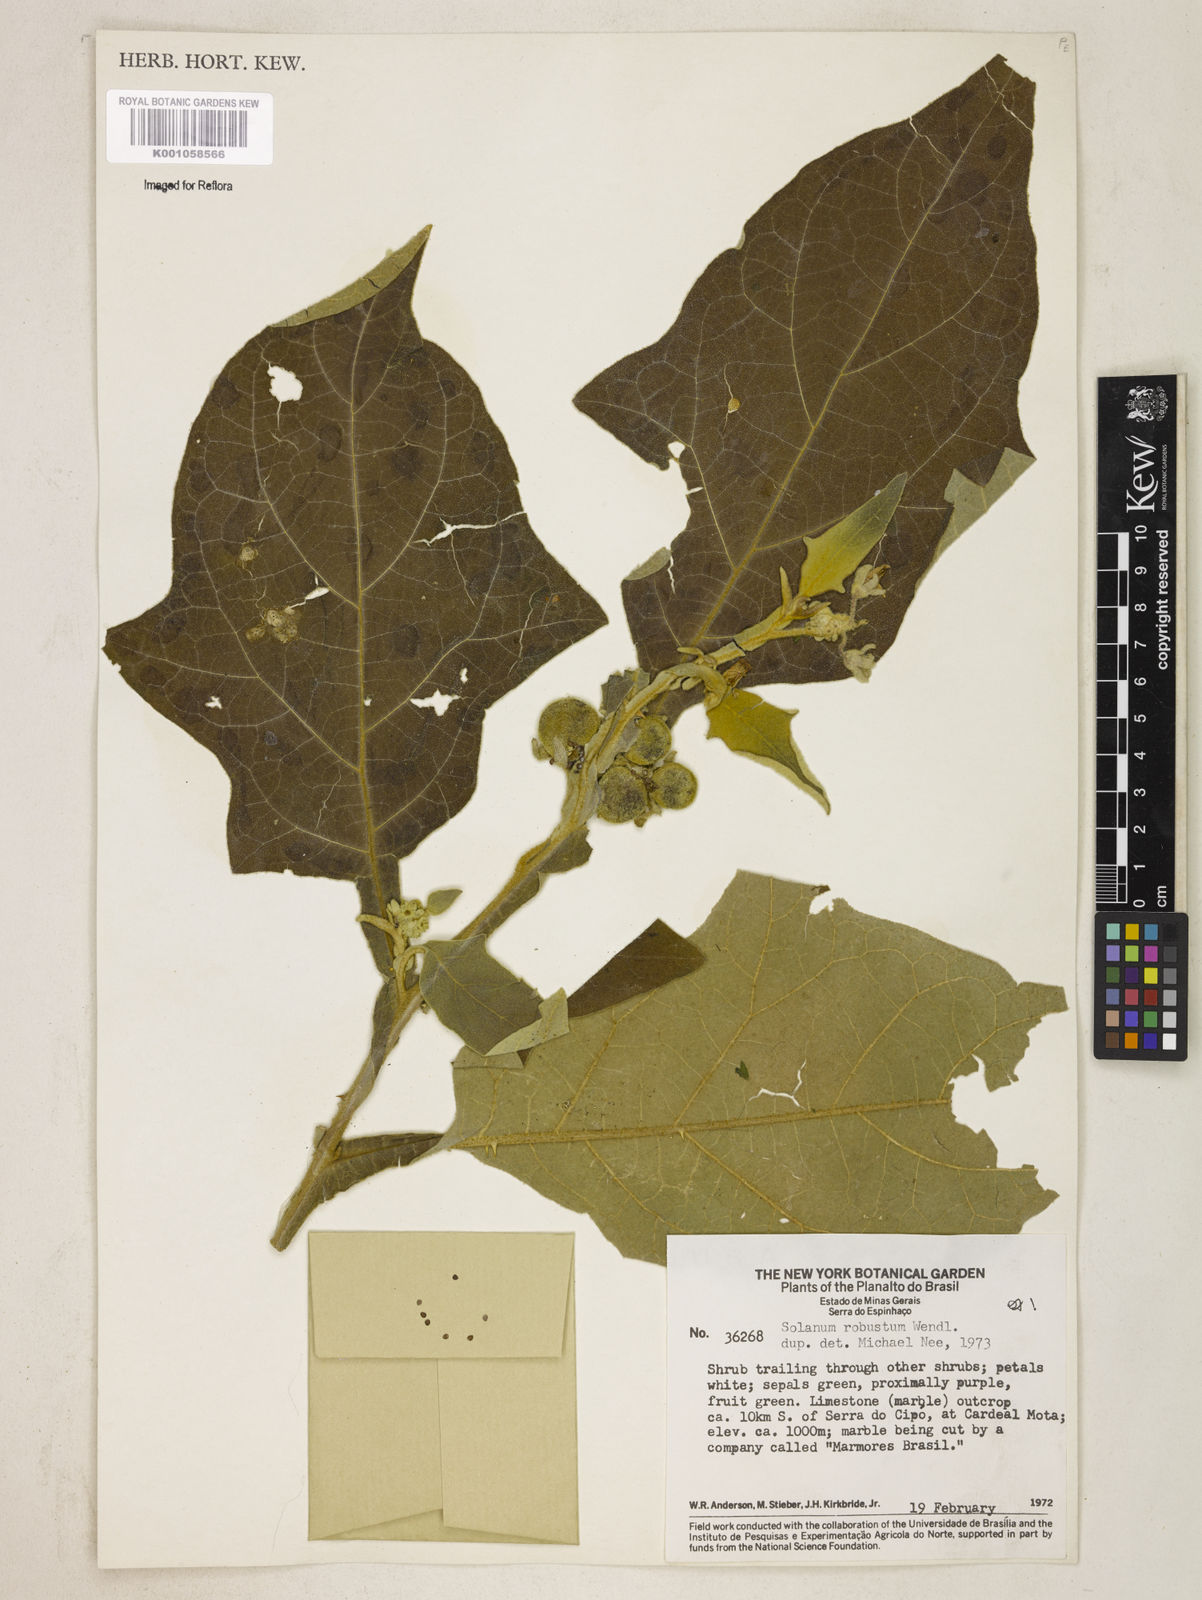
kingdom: Plantae
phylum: Tracheophyta
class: Magnoliopsida
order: Solanales
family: Solanaceae
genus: Solanum
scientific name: Solanum robustum
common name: Shrubby nightshade
